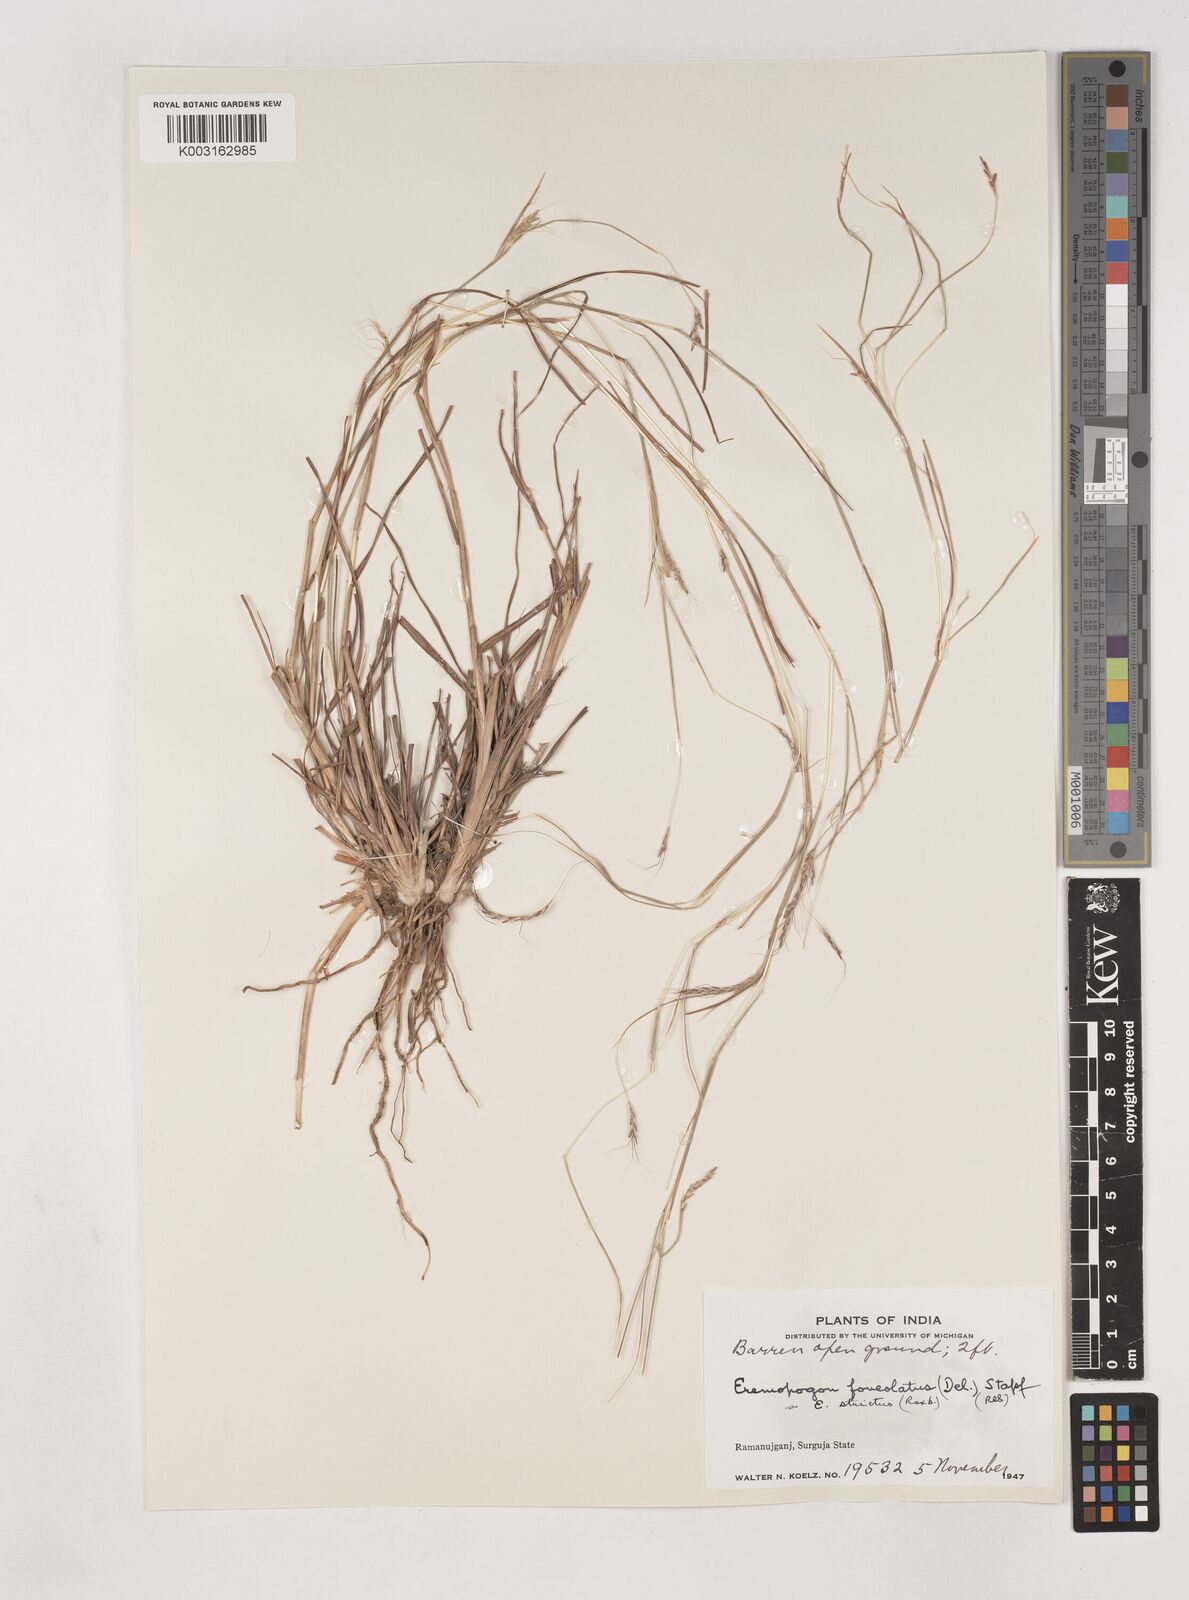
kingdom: Plantae
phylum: Tracheophyta
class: Liliopsida
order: Poales
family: Poaceae
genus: Dichanthium
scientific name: Dichanthium foveolatum
